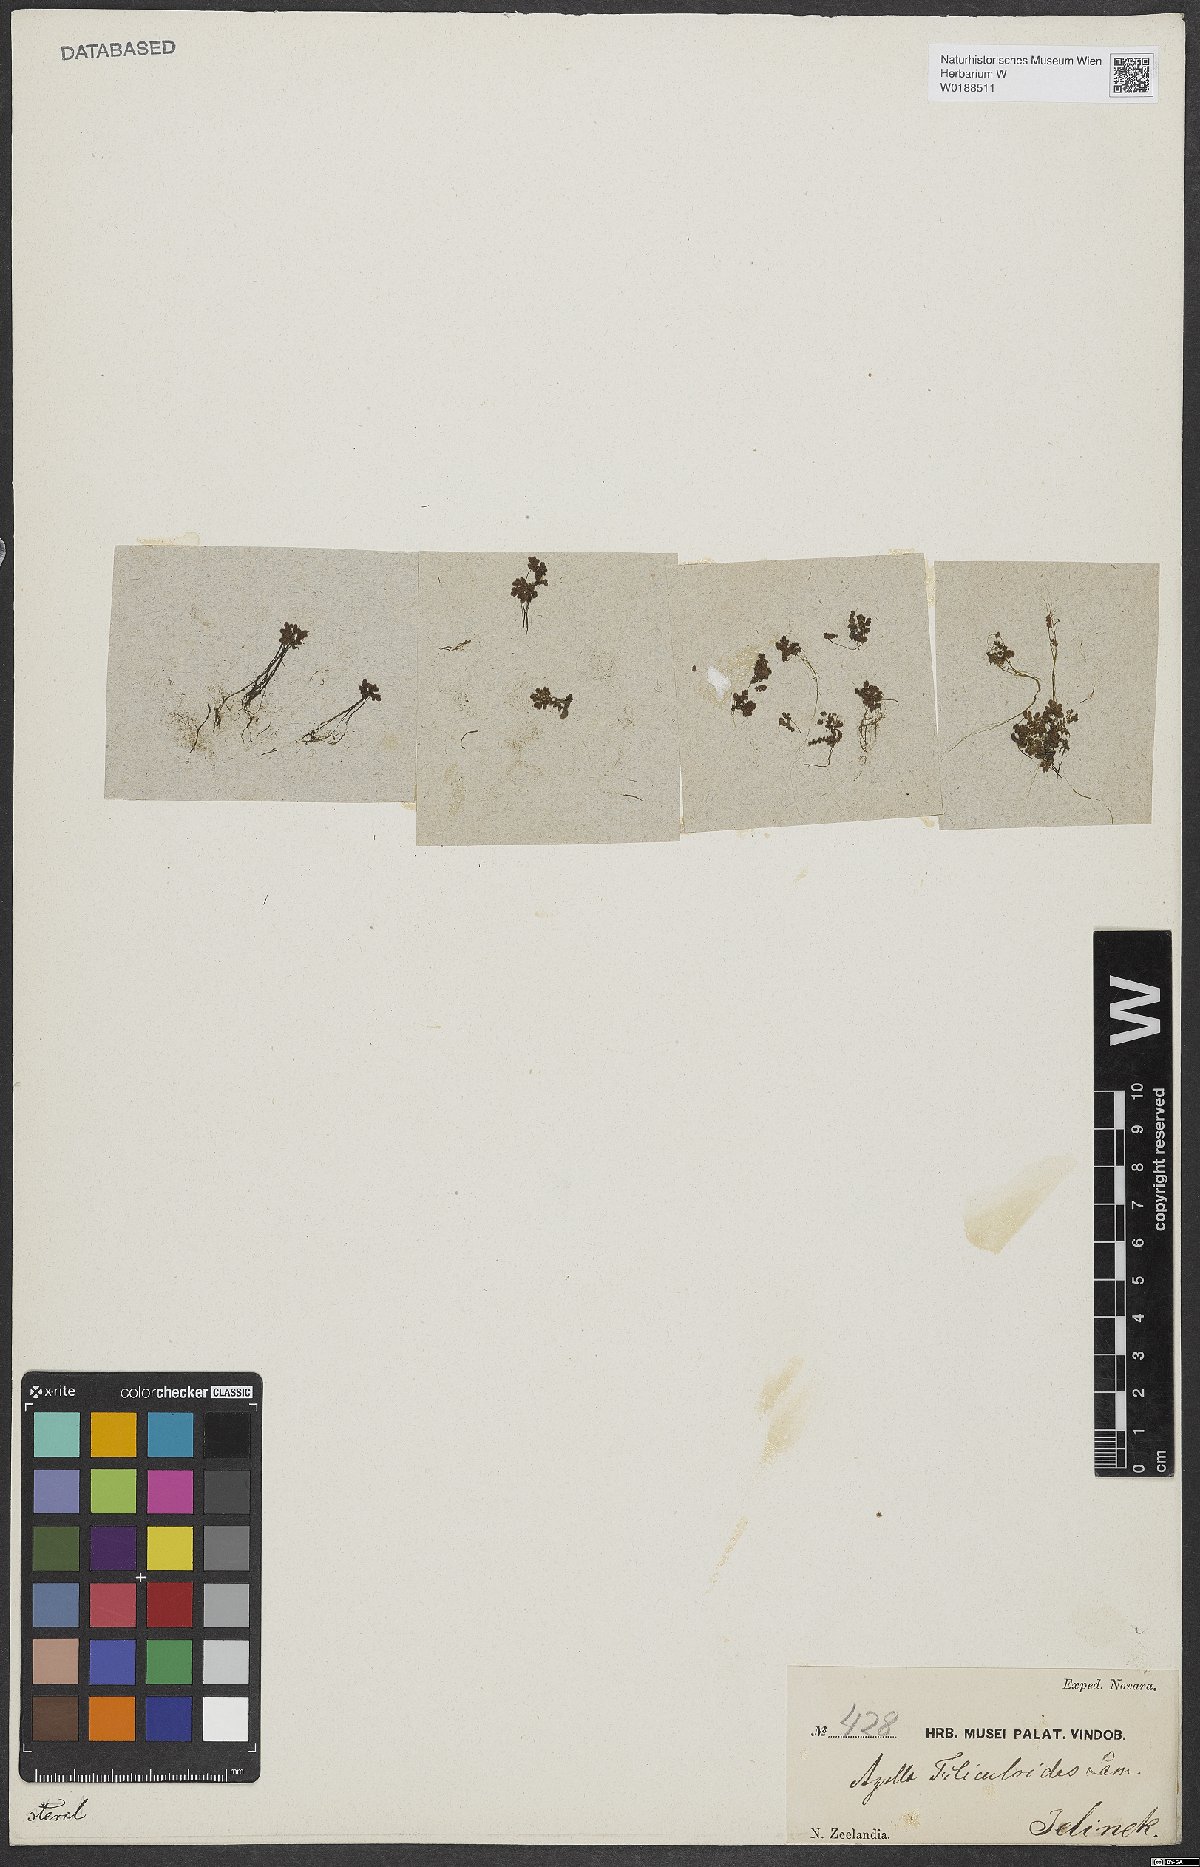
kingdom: Plantae
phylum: Tracheophyta
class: Polypodiopsida
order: Salviniales
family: Salviniaceae
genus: Azolla
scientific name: Azolla filiculoides
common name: Water fern
